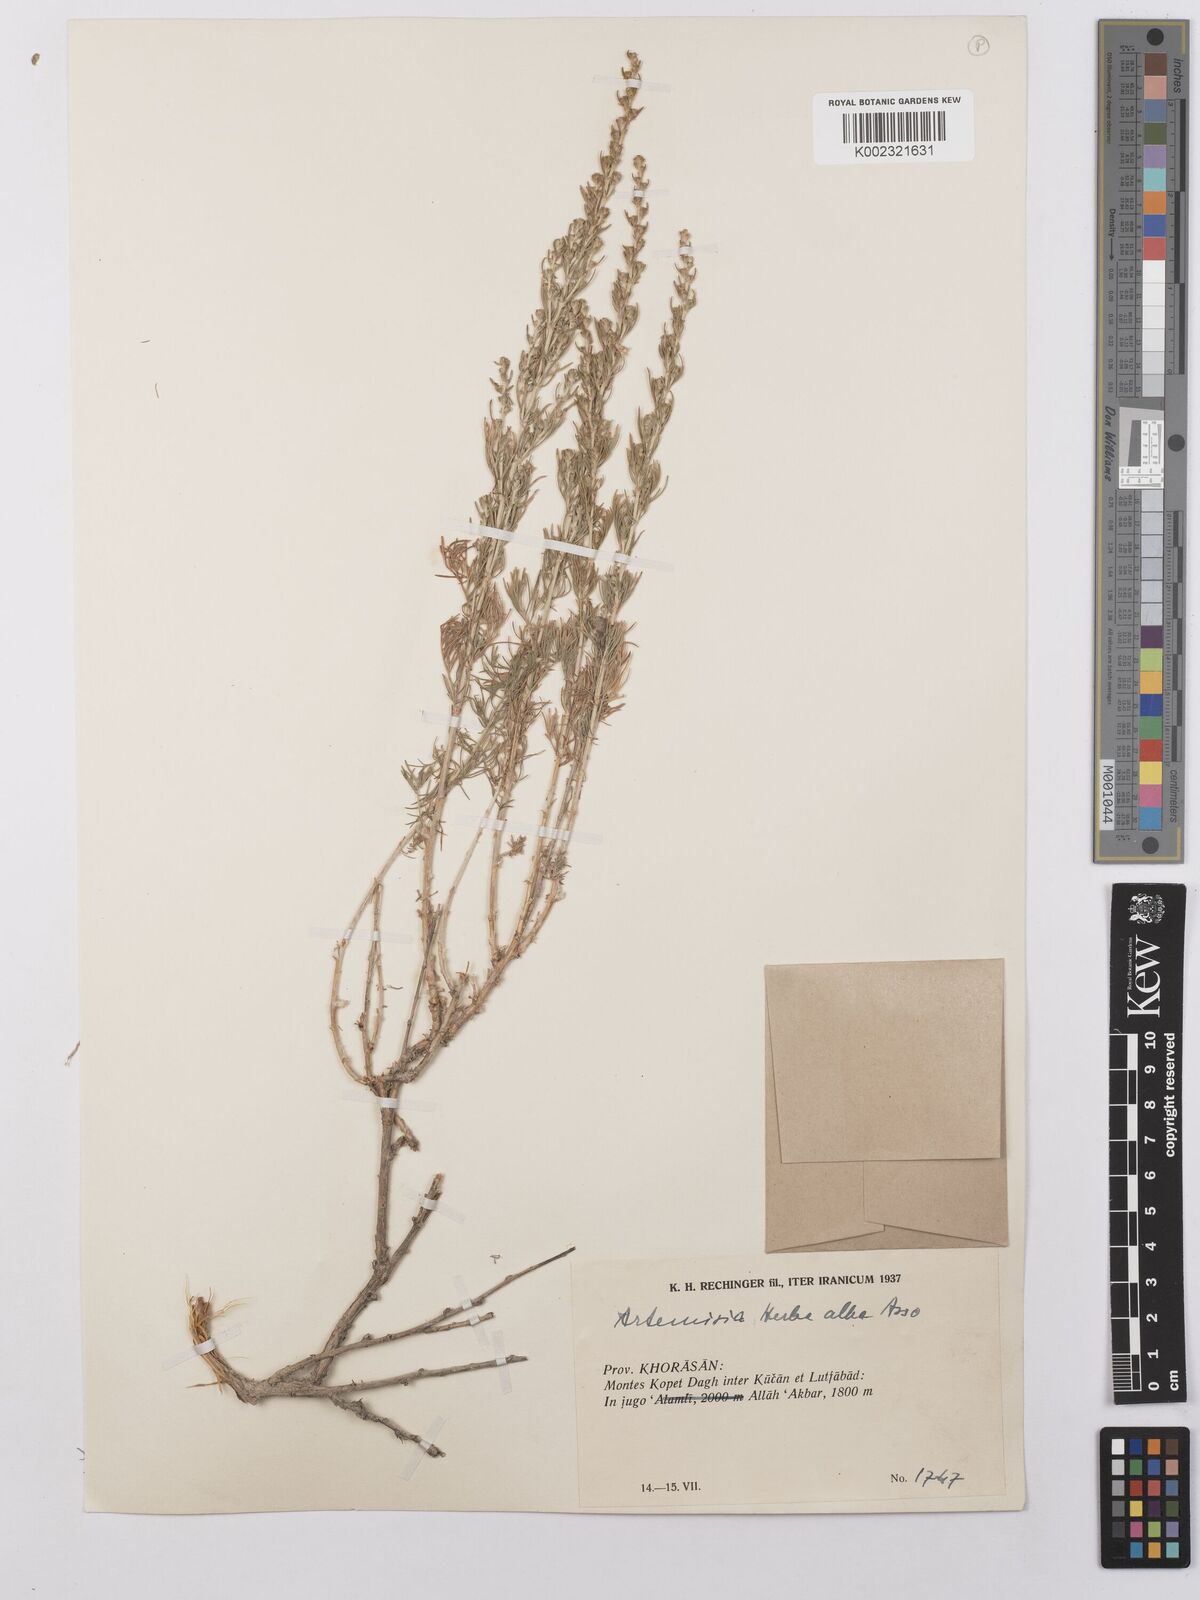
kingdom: Plantae
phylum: Tracheophyta
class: Magnoliopsida
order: Asterales
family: Asteraceae
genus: Artemisia
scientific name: Artemisia herba-alba
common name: White wormwood
